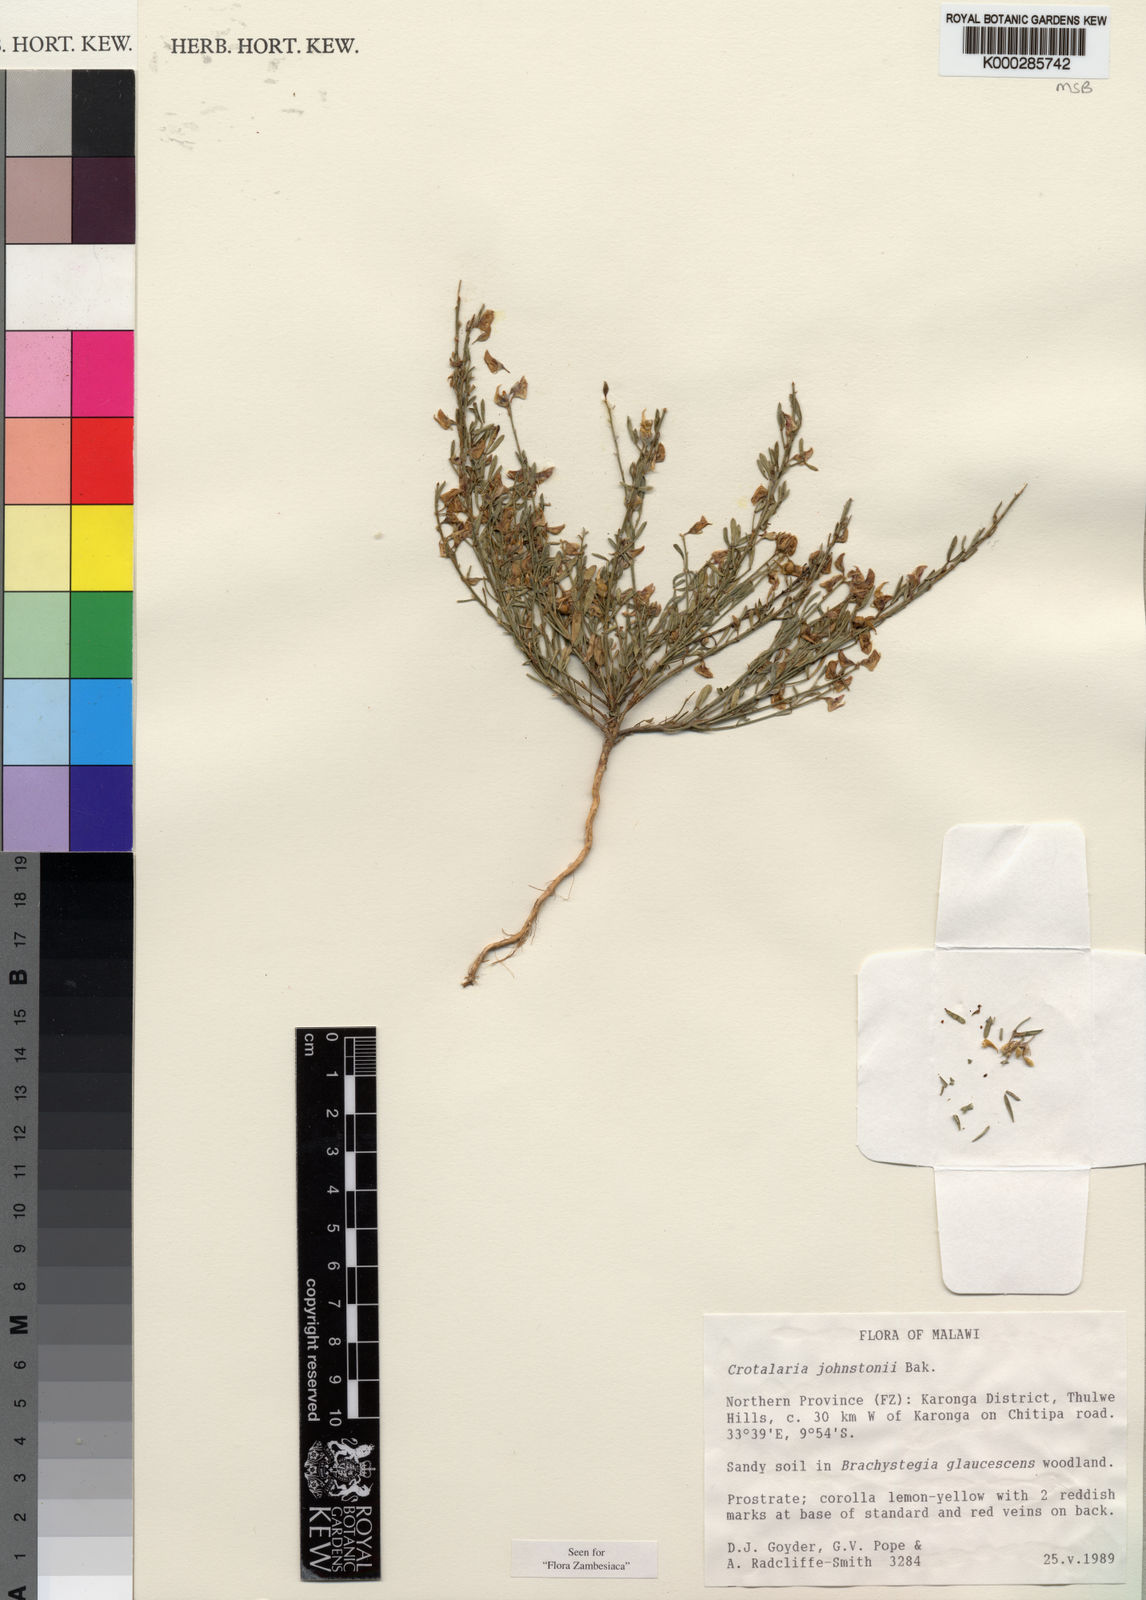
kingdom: Plantae
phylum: Tracheophyta
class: Magnoliopsida
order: Fabales
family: Fabaceae
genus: Crotalaria
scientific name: Crotalaria johnstonii
